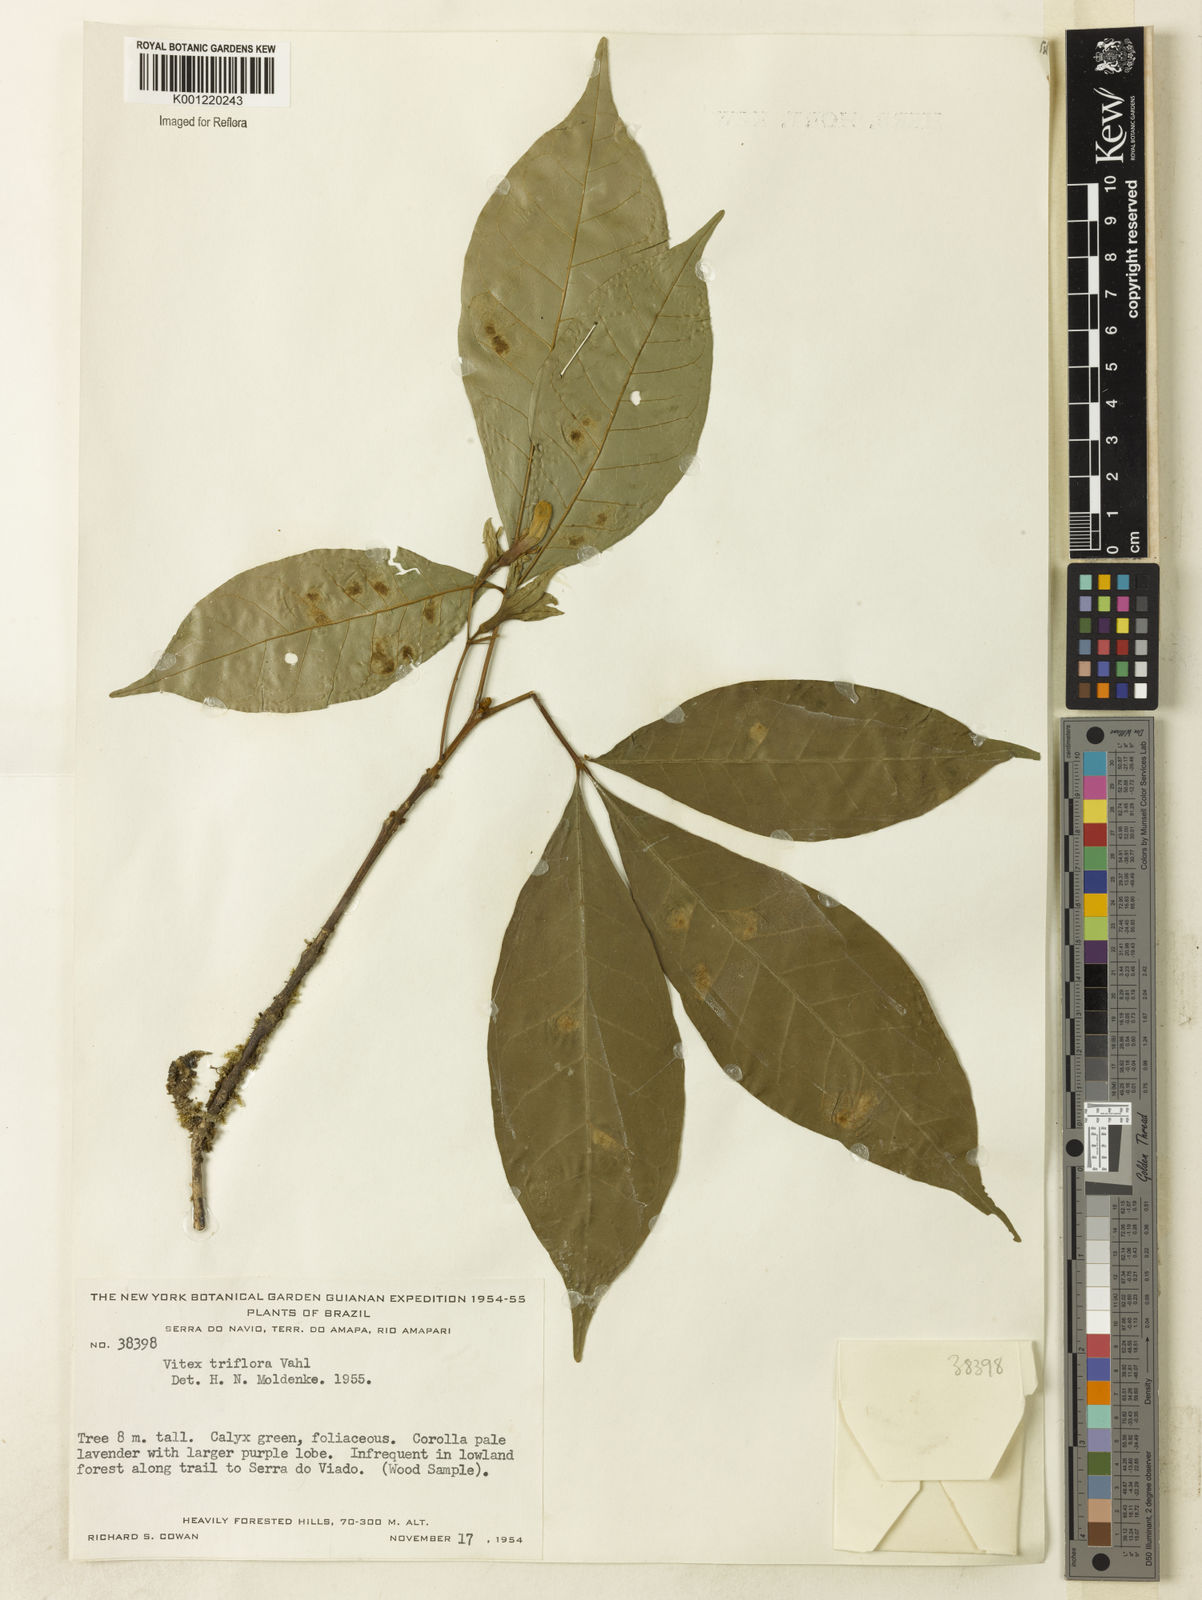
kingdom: Plantae
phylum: Tracheophyta
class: Magnoliopsida
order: Lamiales
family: Lamiaceae
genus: Vitex
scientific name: Vitex triflora
